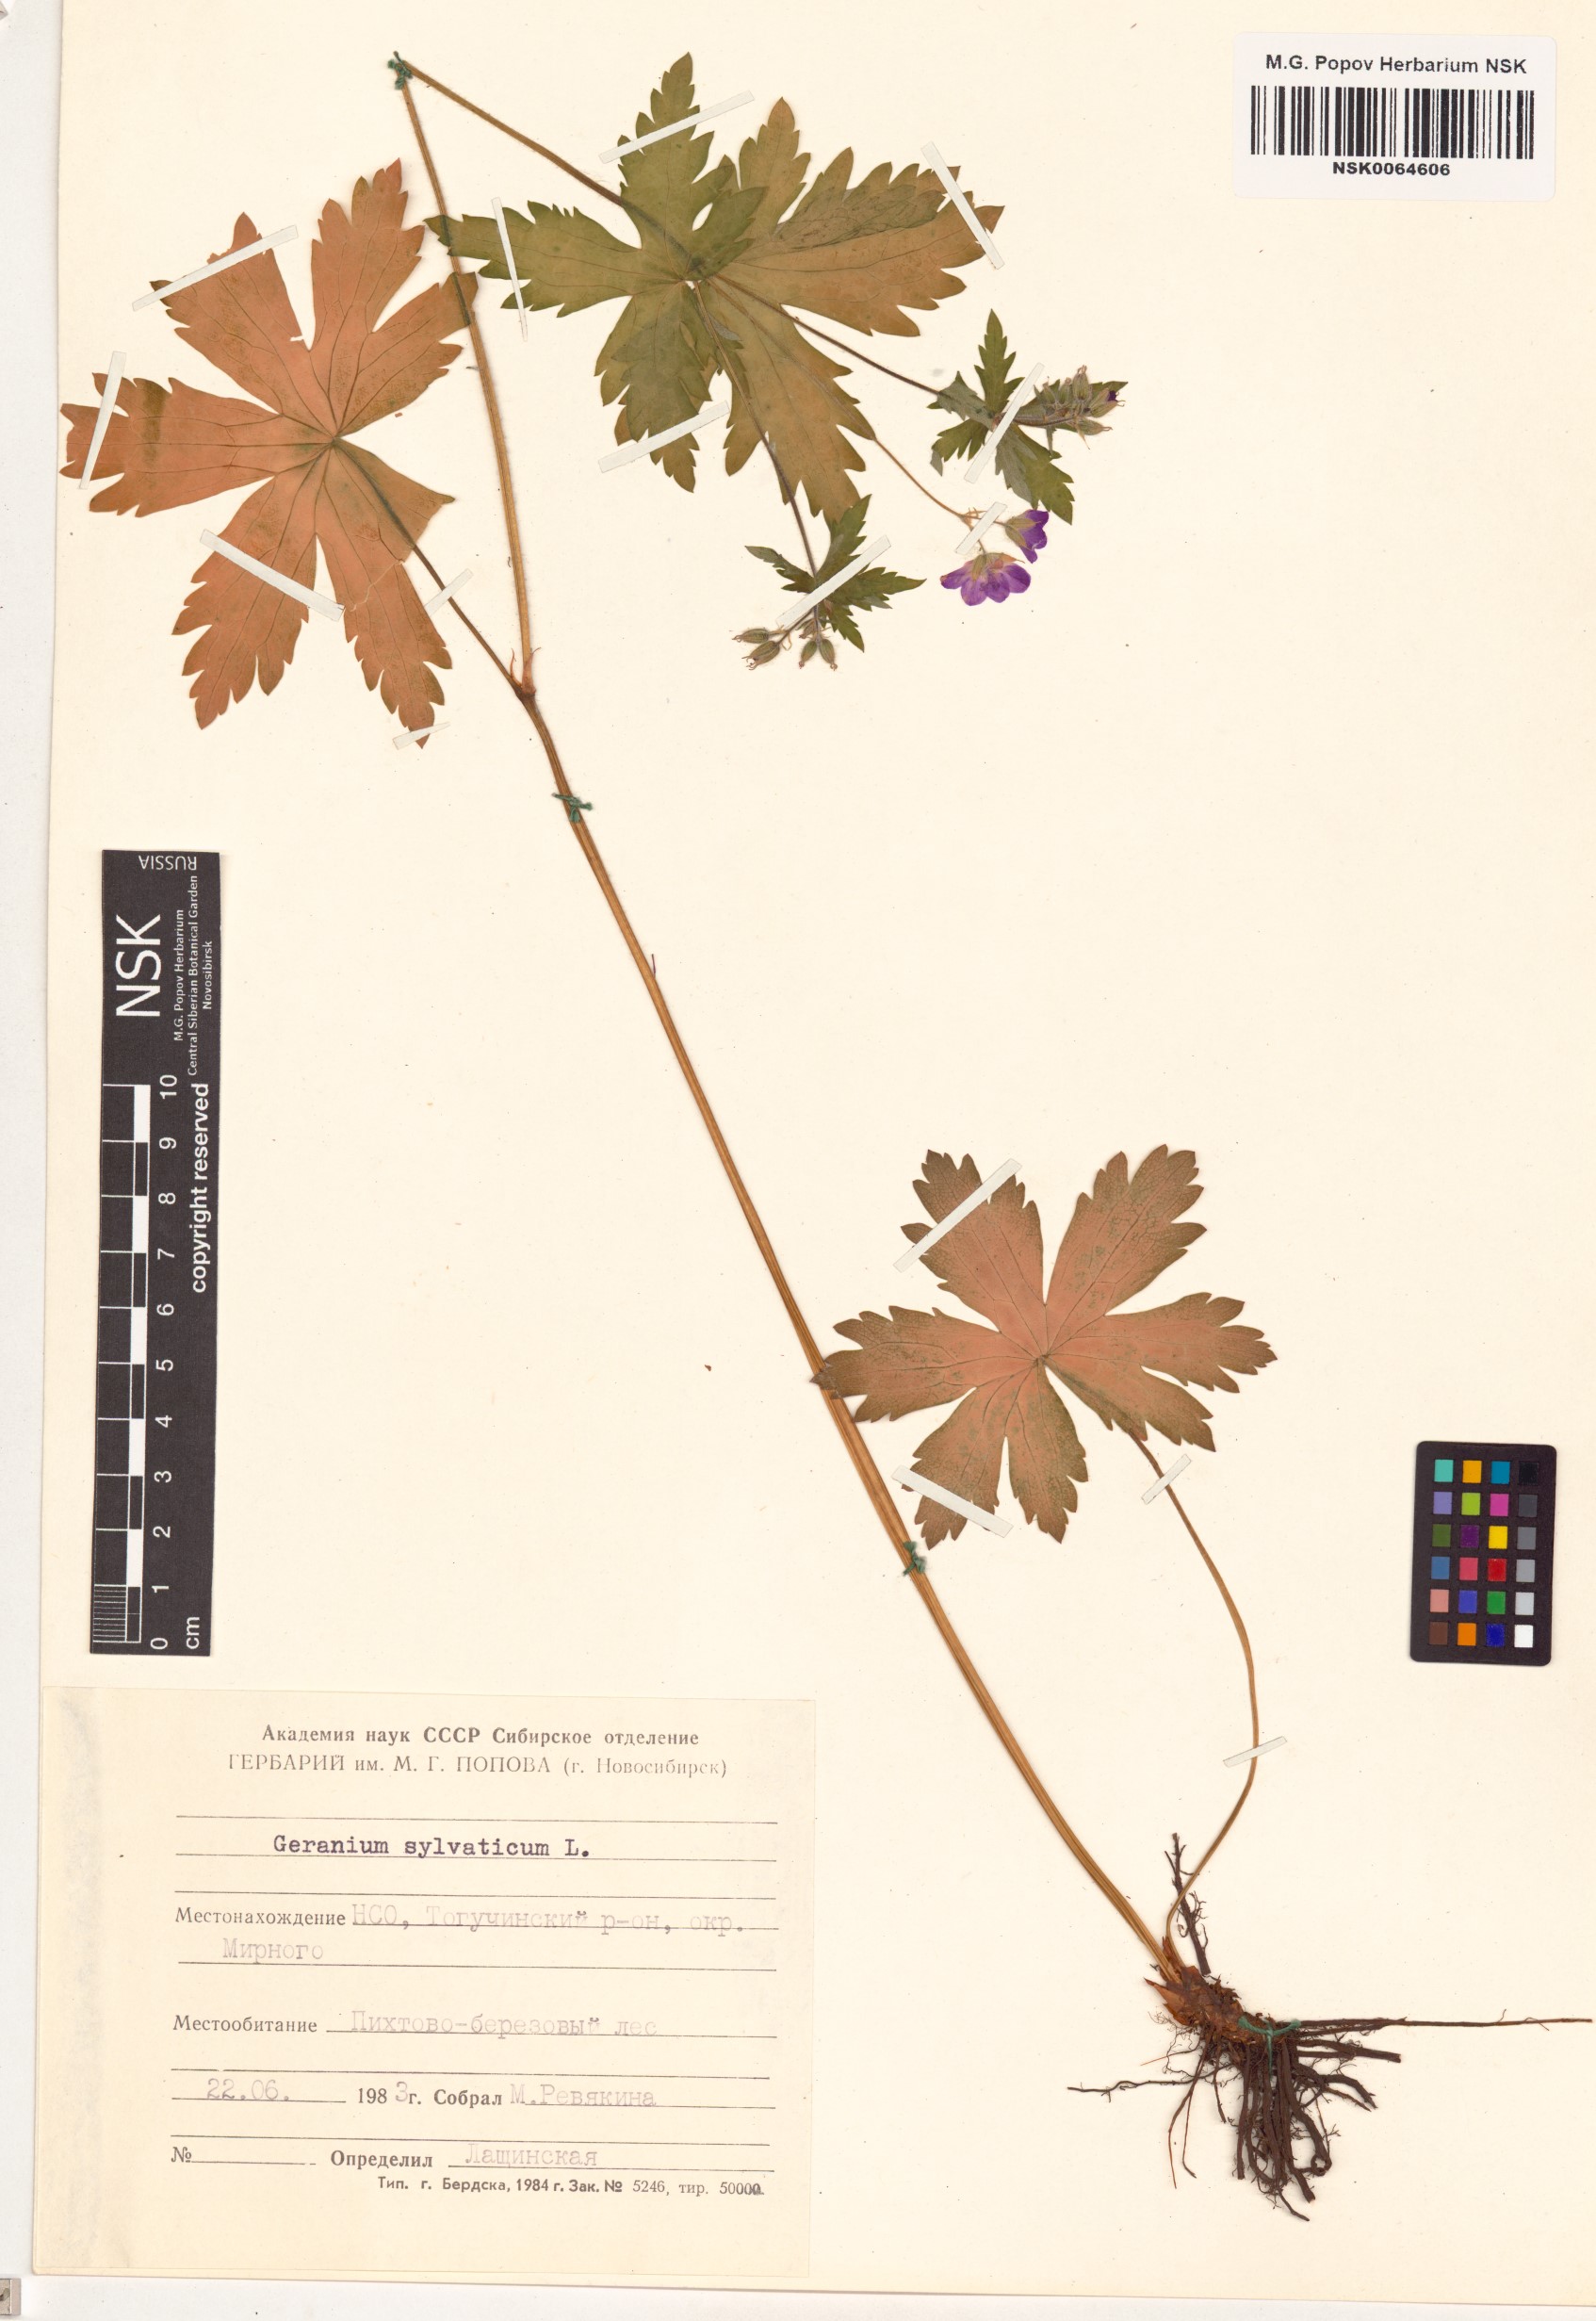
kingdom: Plantae
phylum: Tracheophyta
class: Magnoliopsida
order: Geraniales
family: Geraniaceae
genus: Geranium
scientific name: Geranium sylvaticum
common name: Wood crane's-bill
